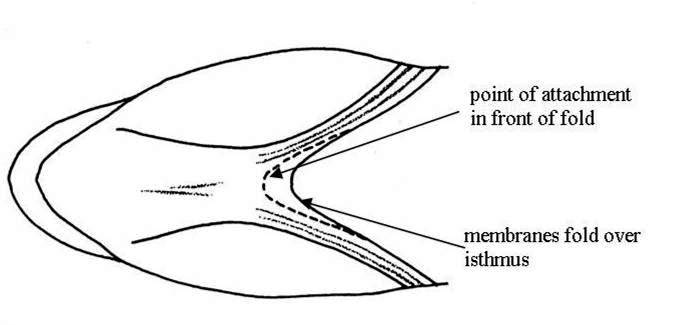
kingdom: Animalia
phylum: Chordata
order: Perciformes
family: Gobiidae
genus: Myersina
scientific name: Myersina
